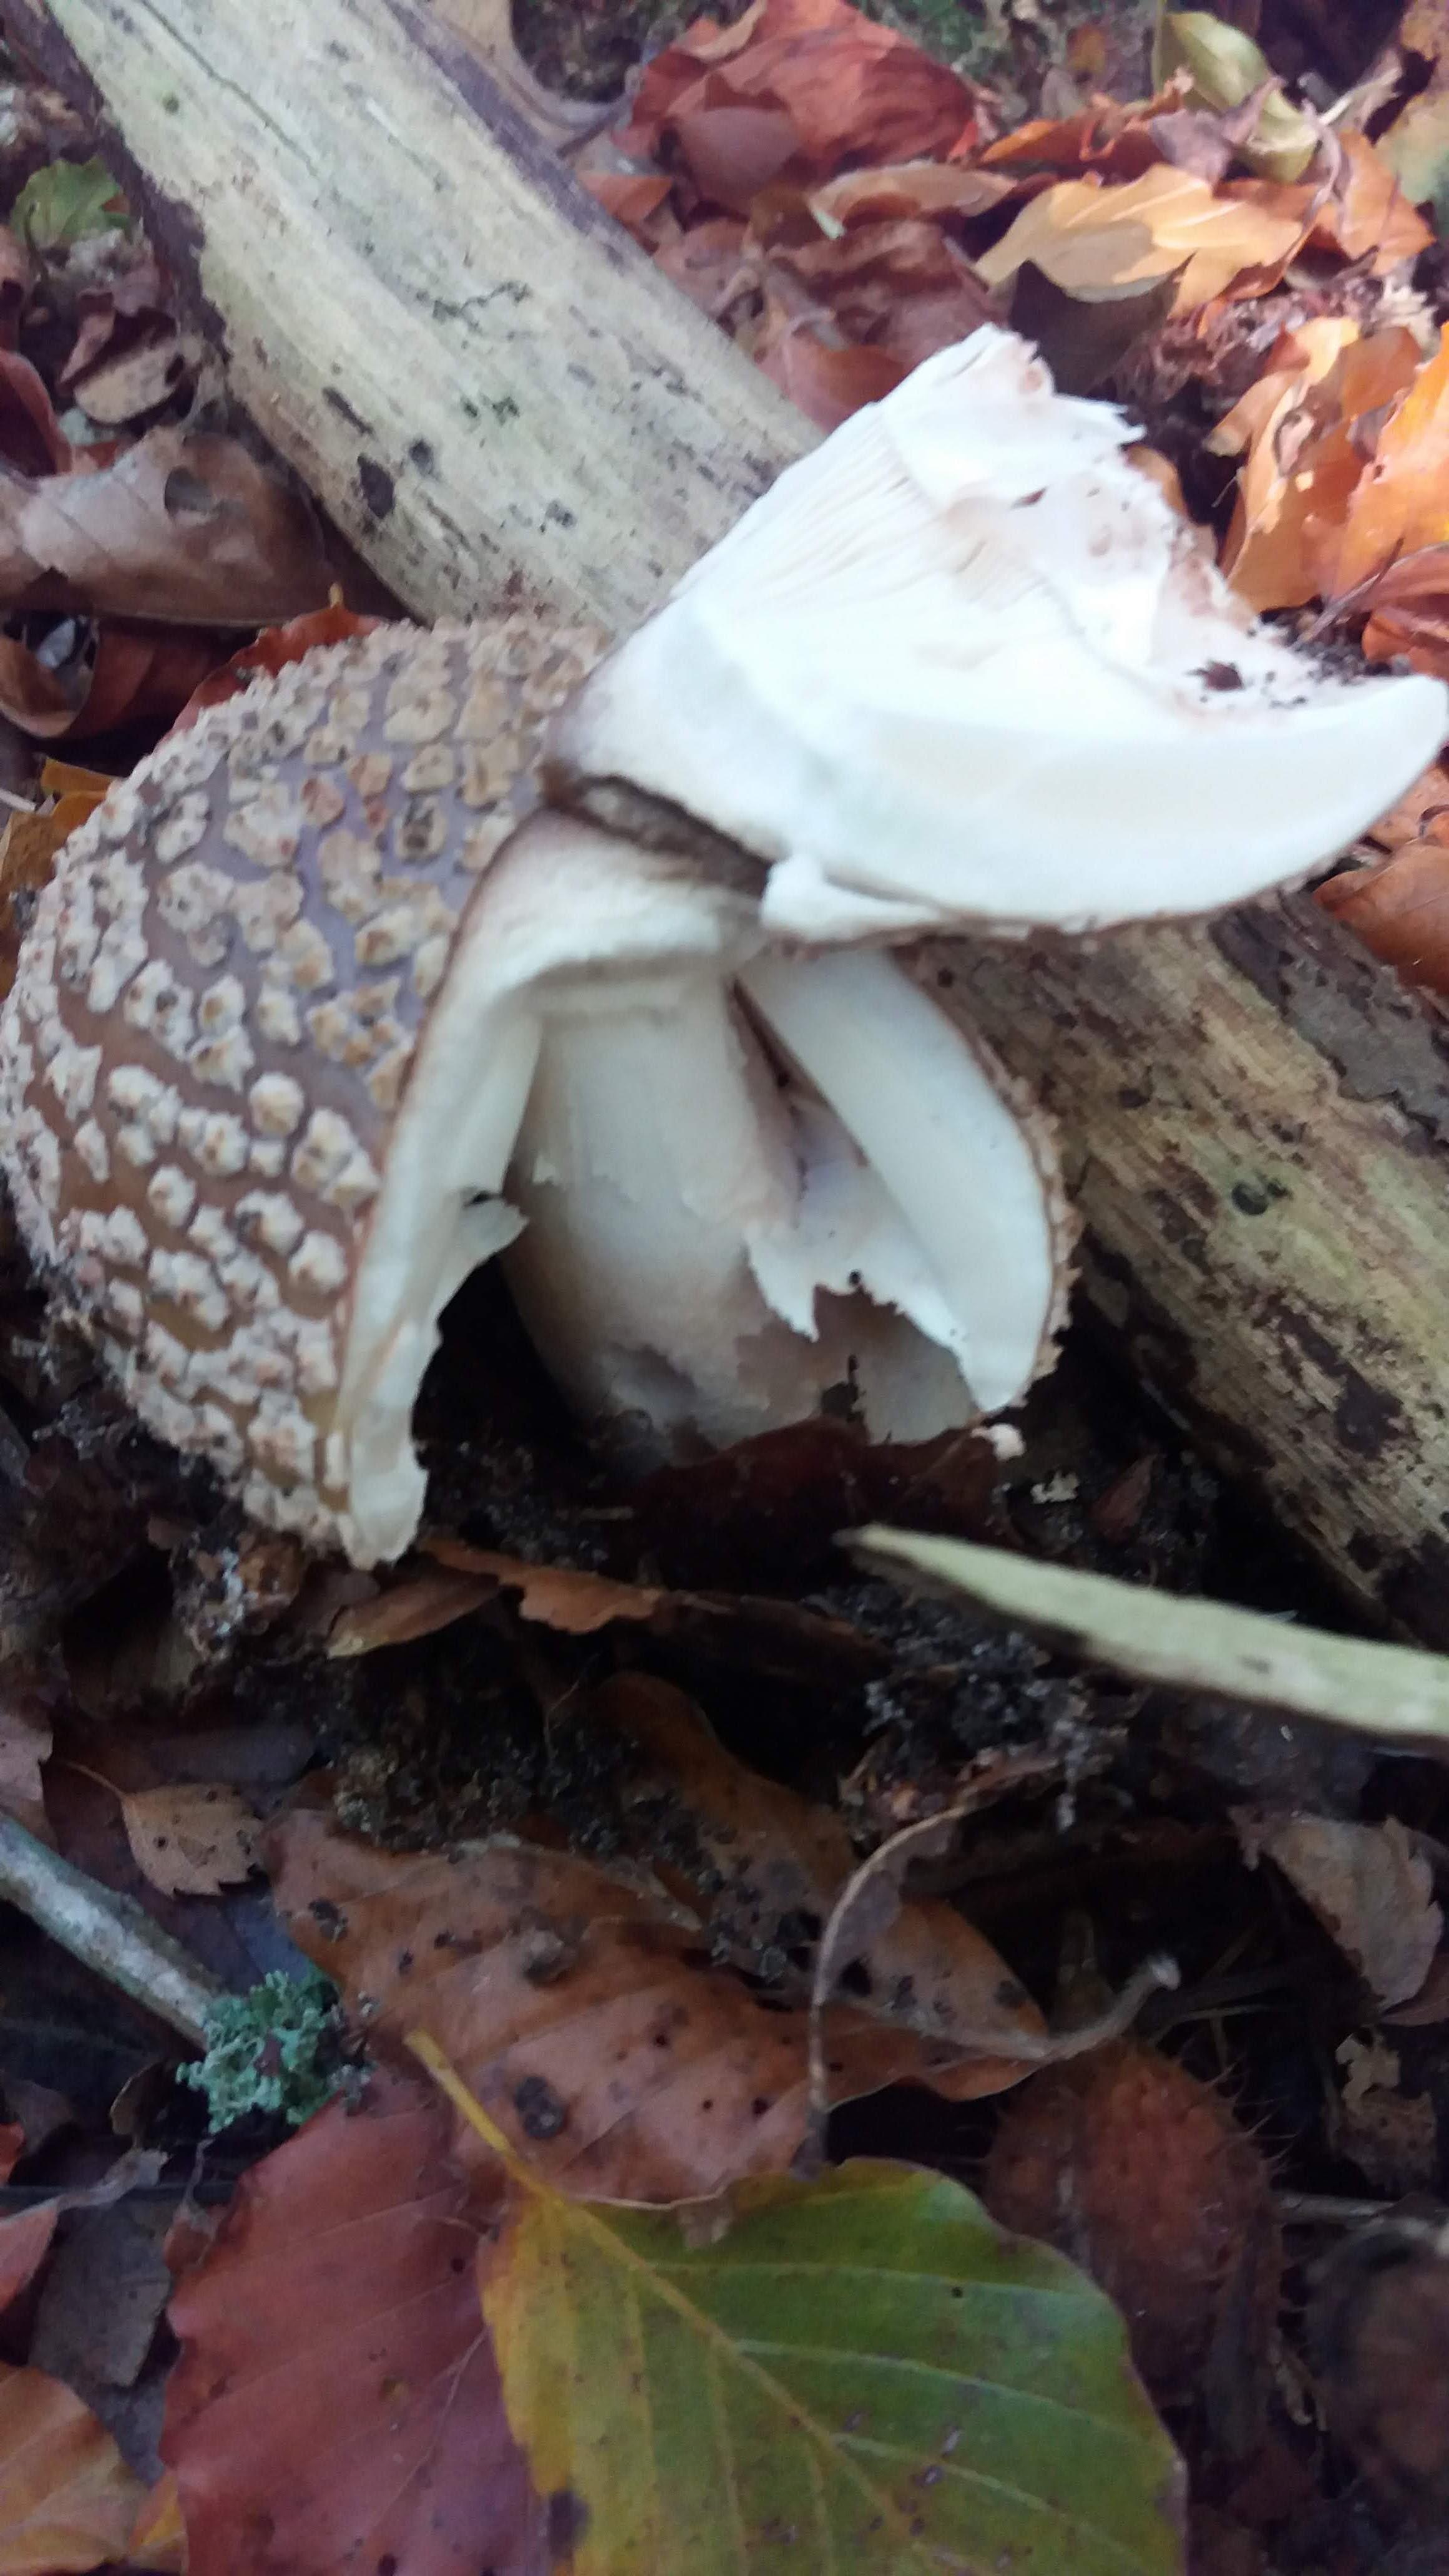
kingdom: Fungi
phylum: Basidiomycota
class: Agaricomycetes
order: Agaricales
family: Amanitaceae
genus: Amanita
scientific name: Amanita
